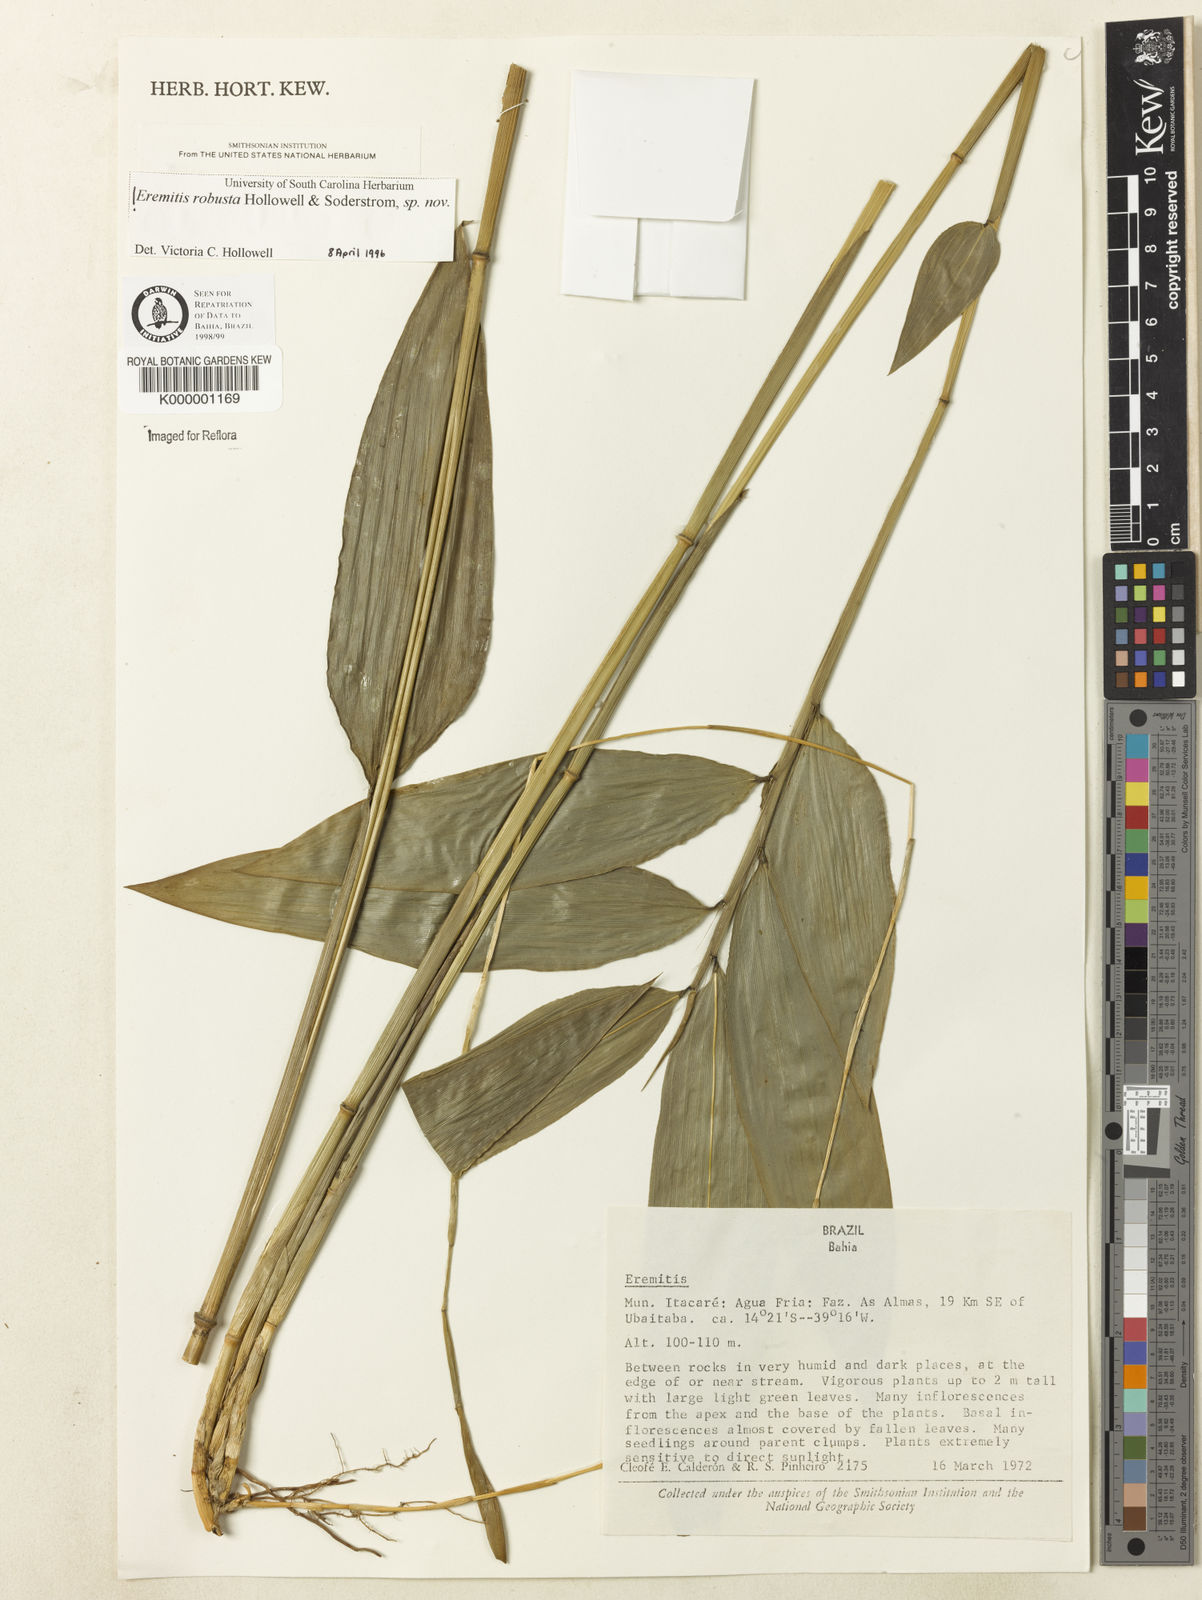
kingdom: Plantae
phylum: Tracheophyta
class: Liliopsida
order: Poales
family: Poaceae
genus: Eremitis
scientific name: Eremitis
